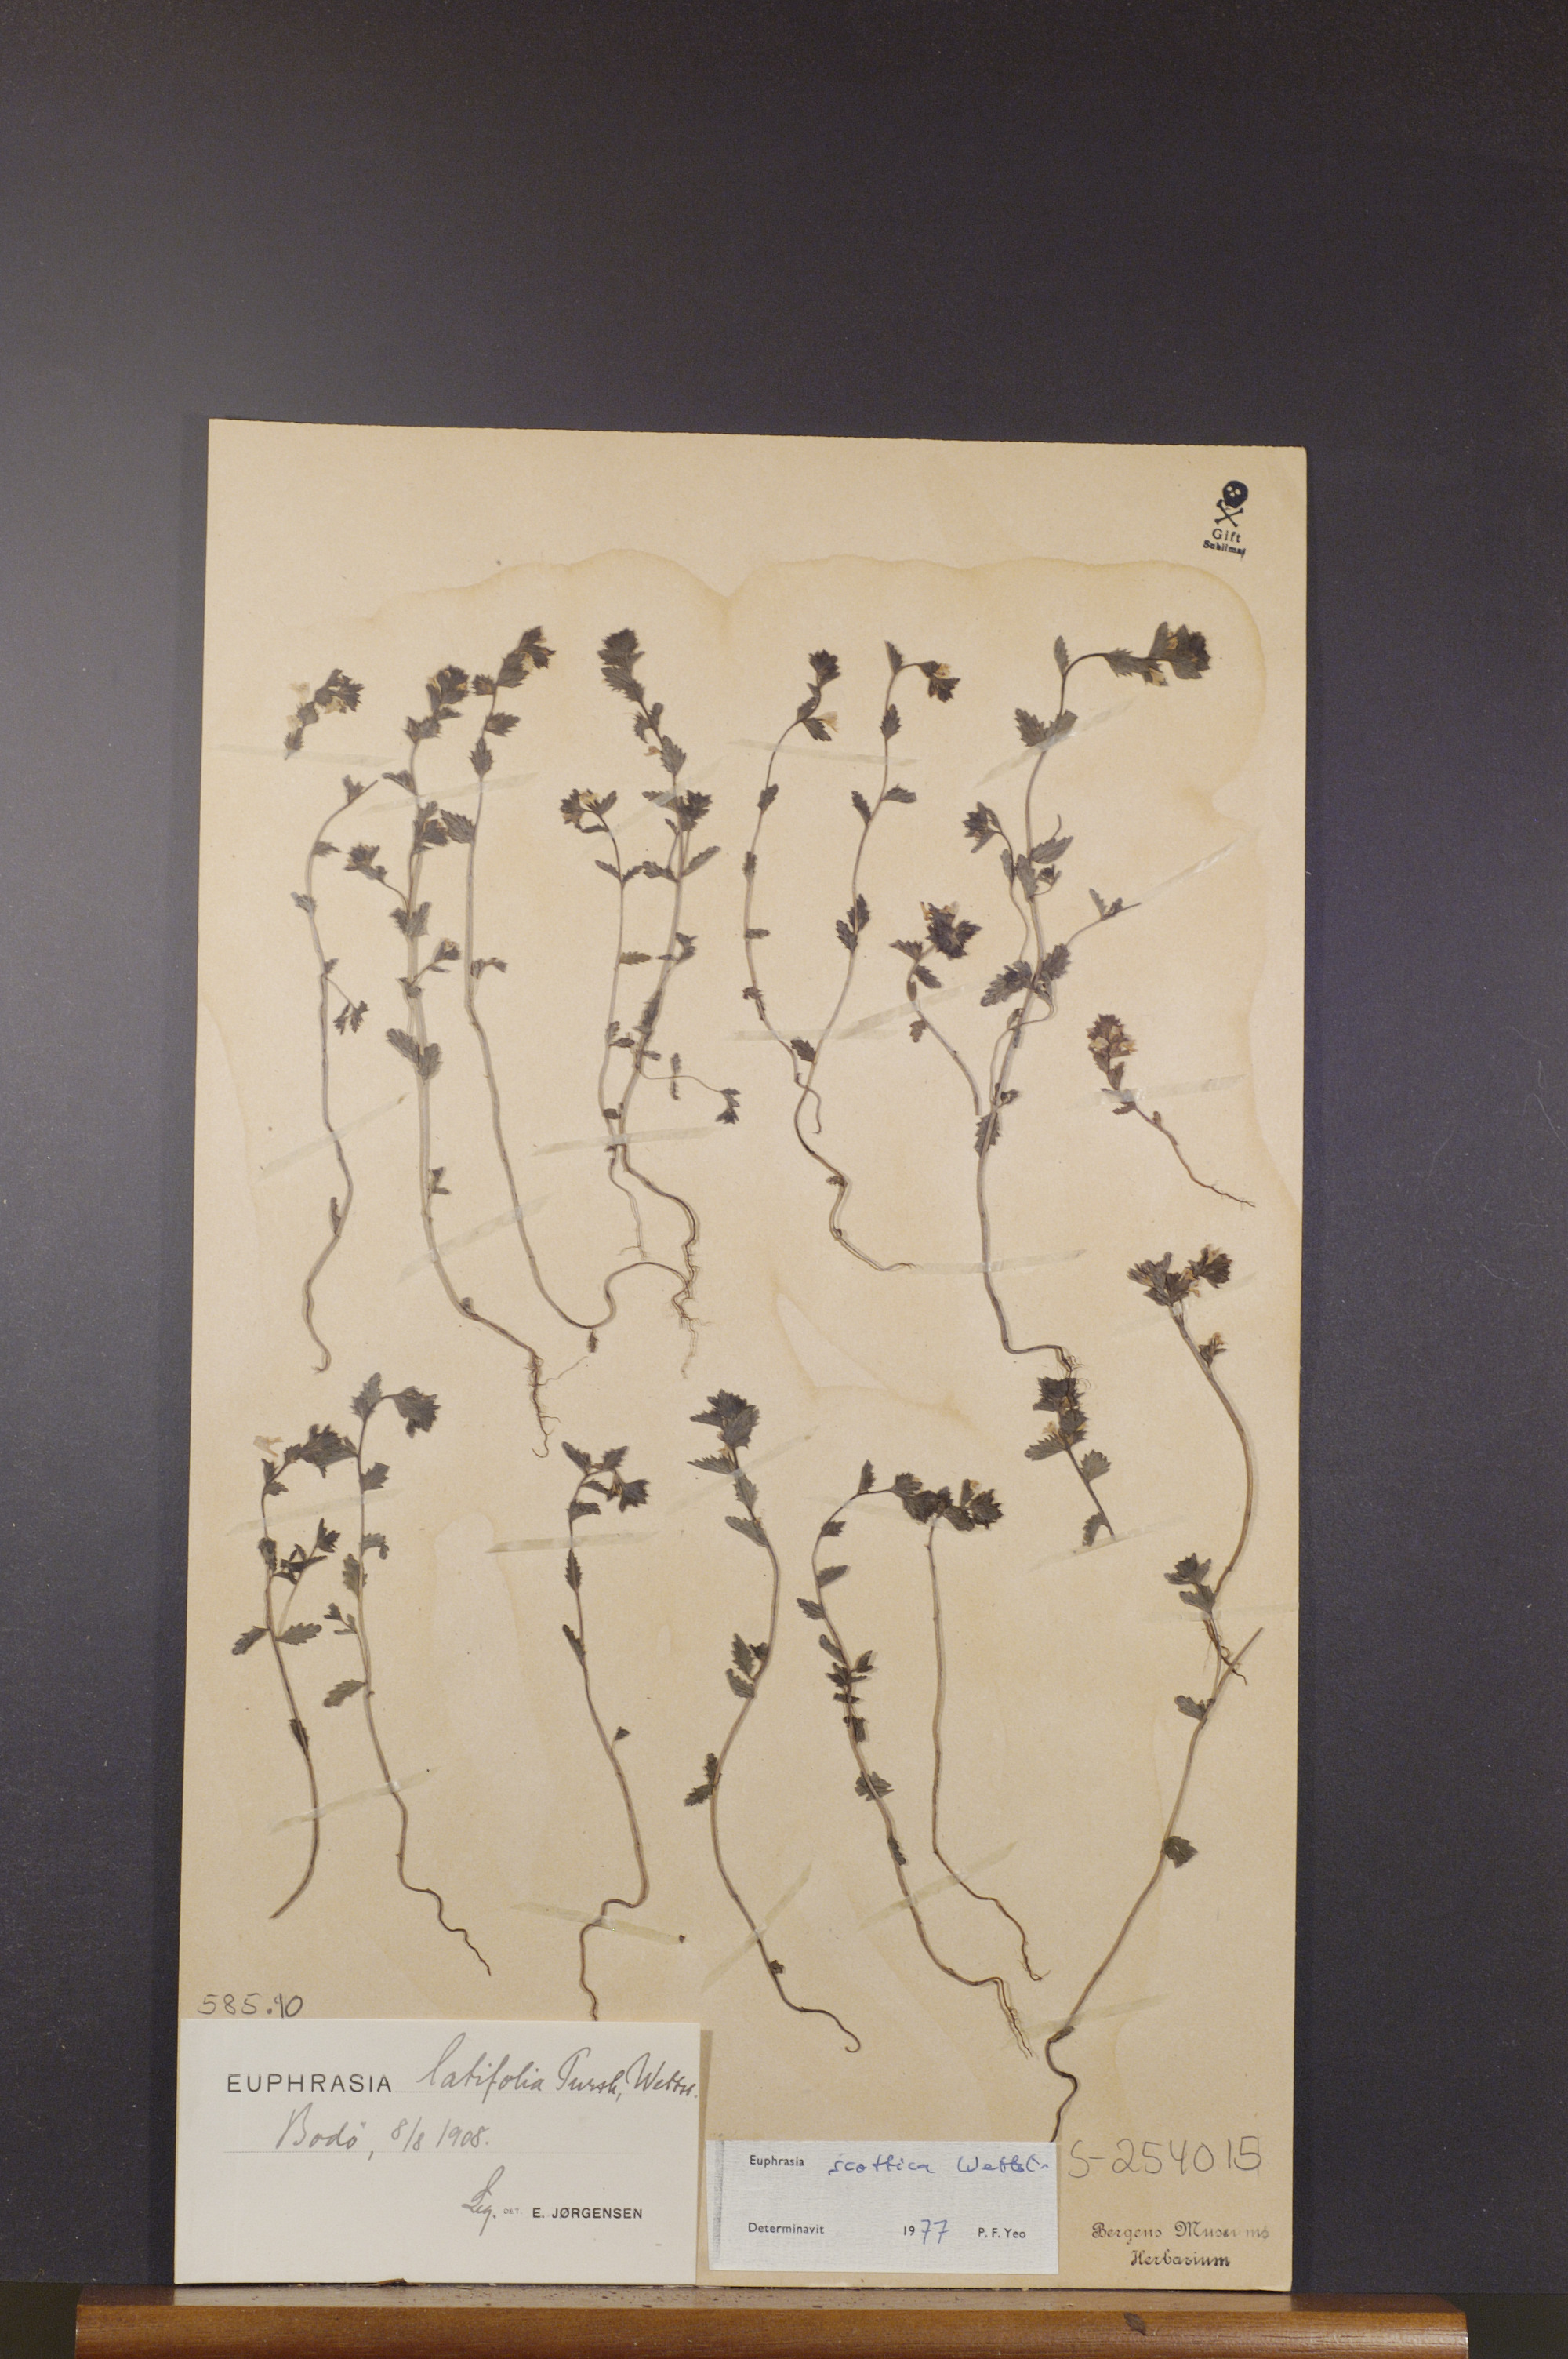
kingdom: Plantae
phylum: Tracheophyta
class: Magnoliopsida
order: Lamiales
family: Orobanchaceae
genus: Euphrasia
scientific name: Euphrasia scottica
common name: Slender scottish eyebright
